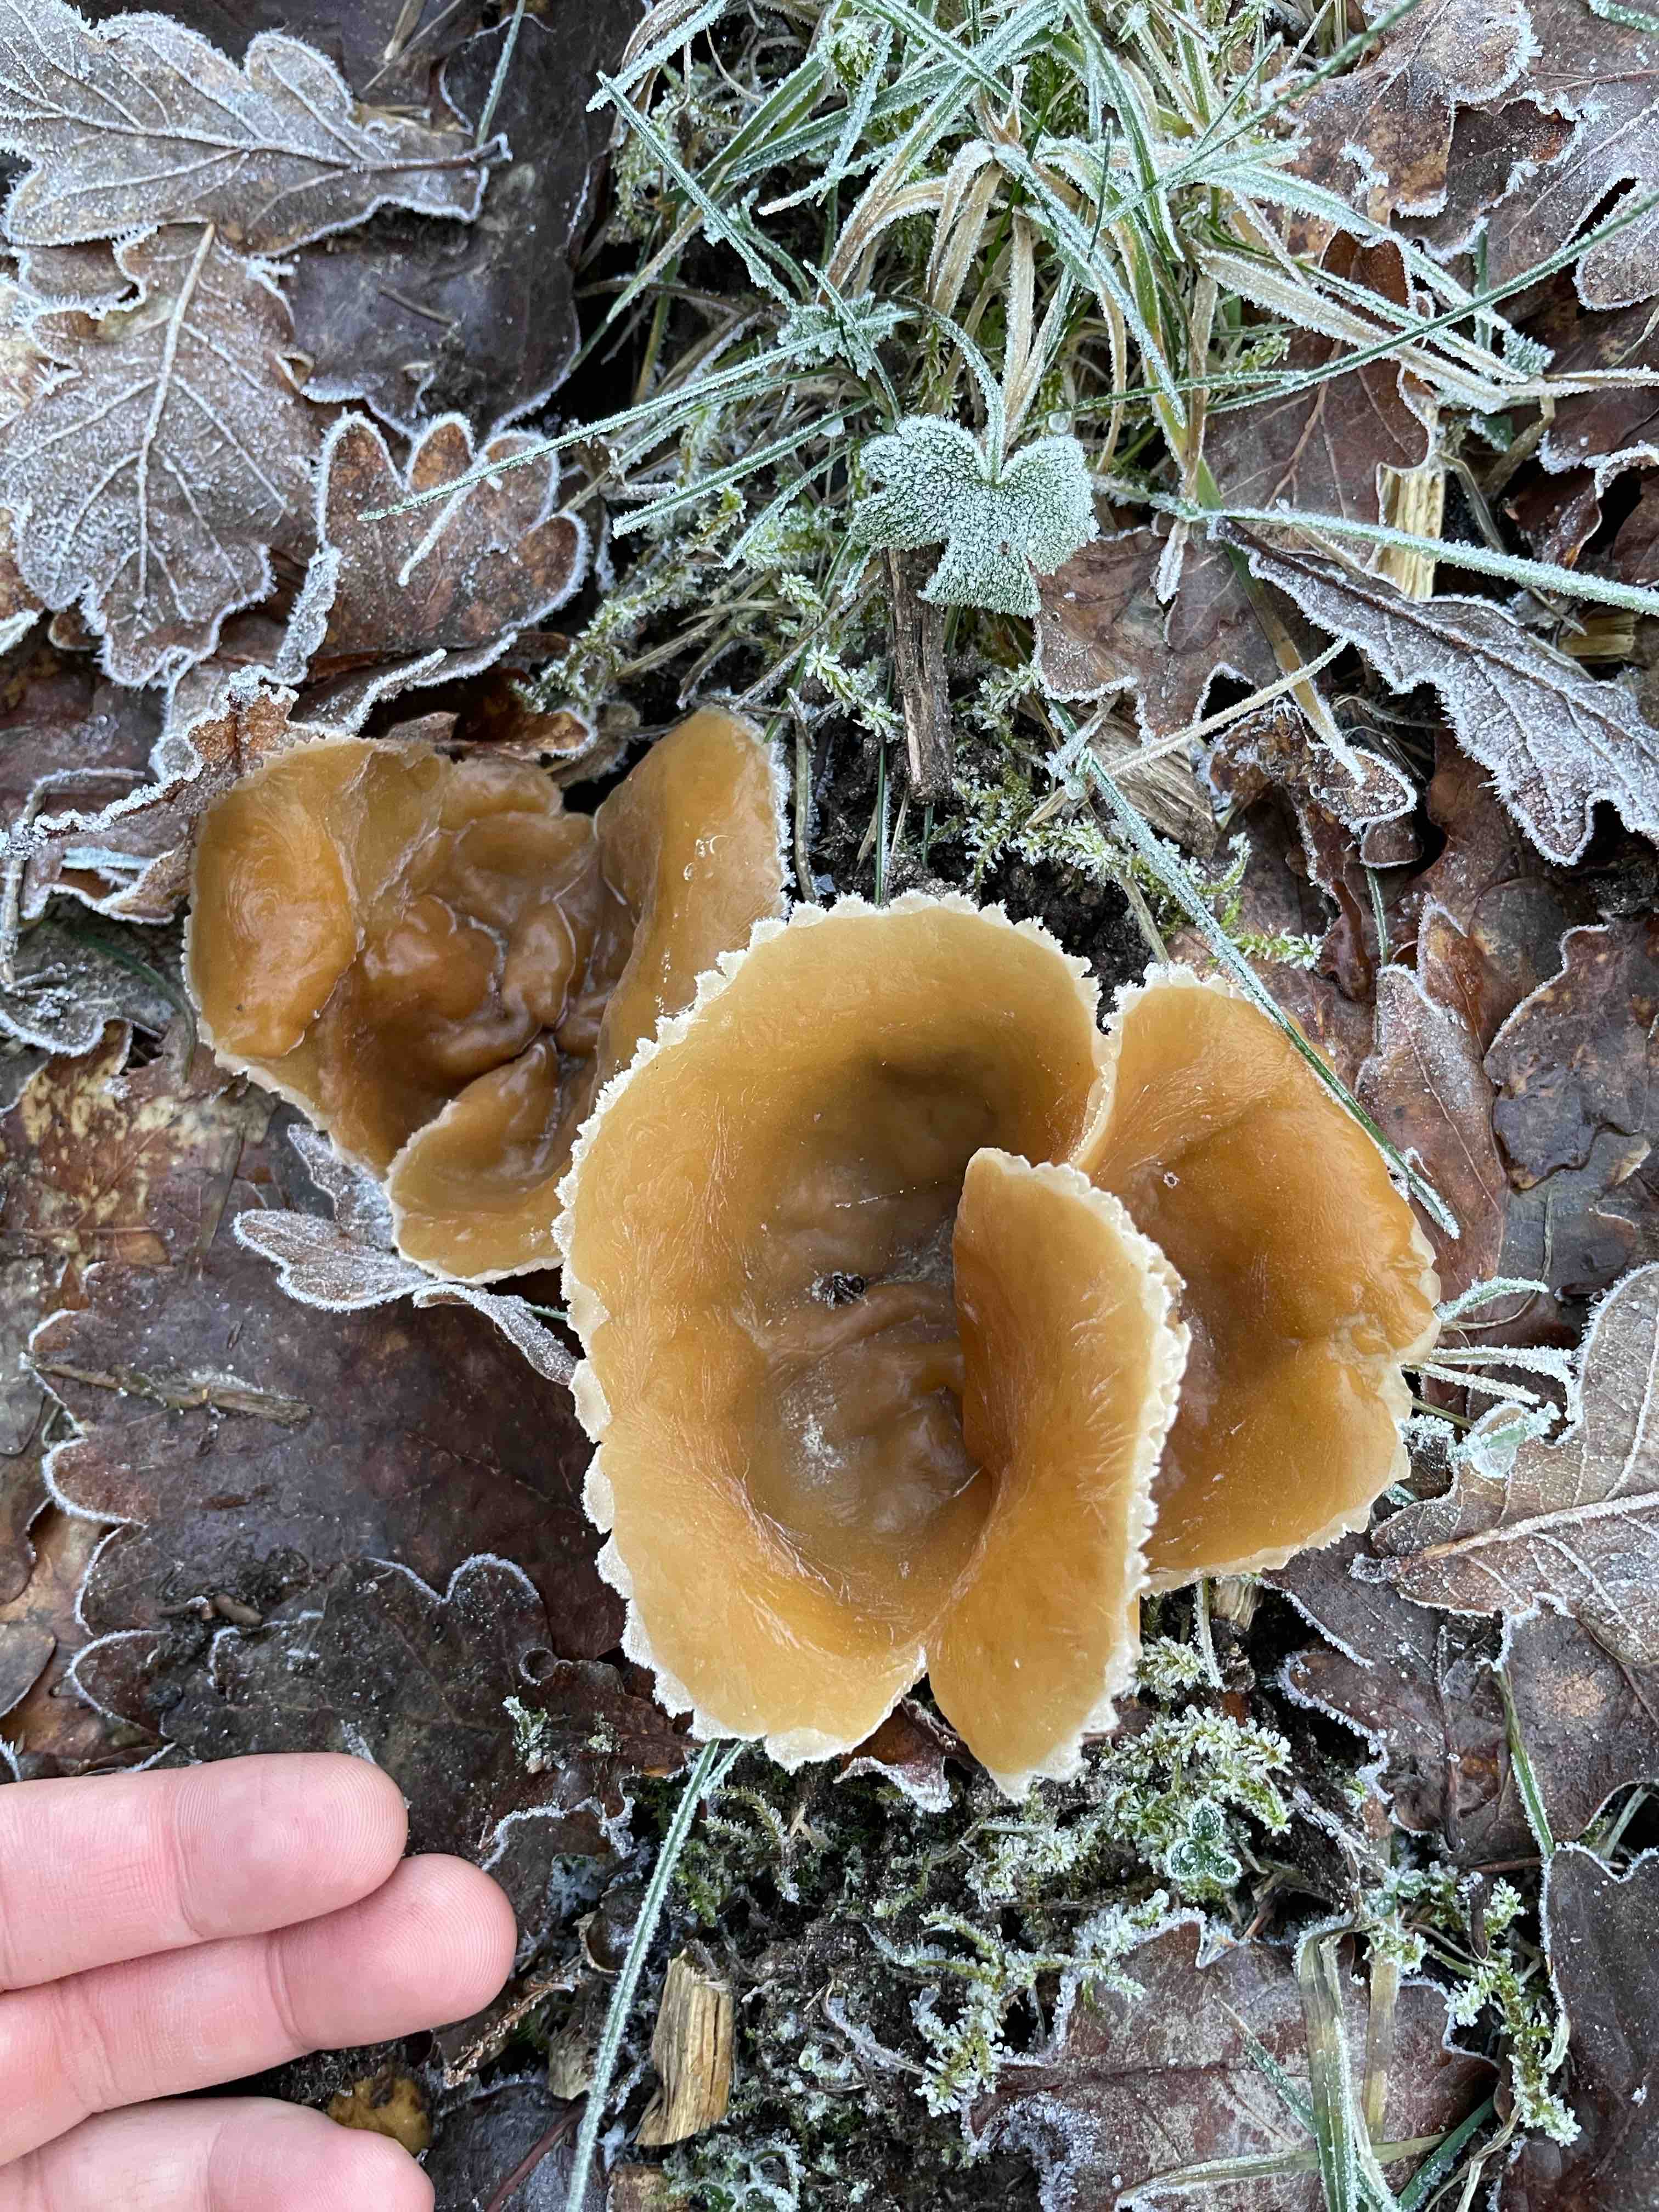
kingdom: Fungi
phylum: Ascomycota
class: Pezizomycetes
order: Pezizales
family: Pezizaceae
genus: Peziza
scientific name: Peziza
